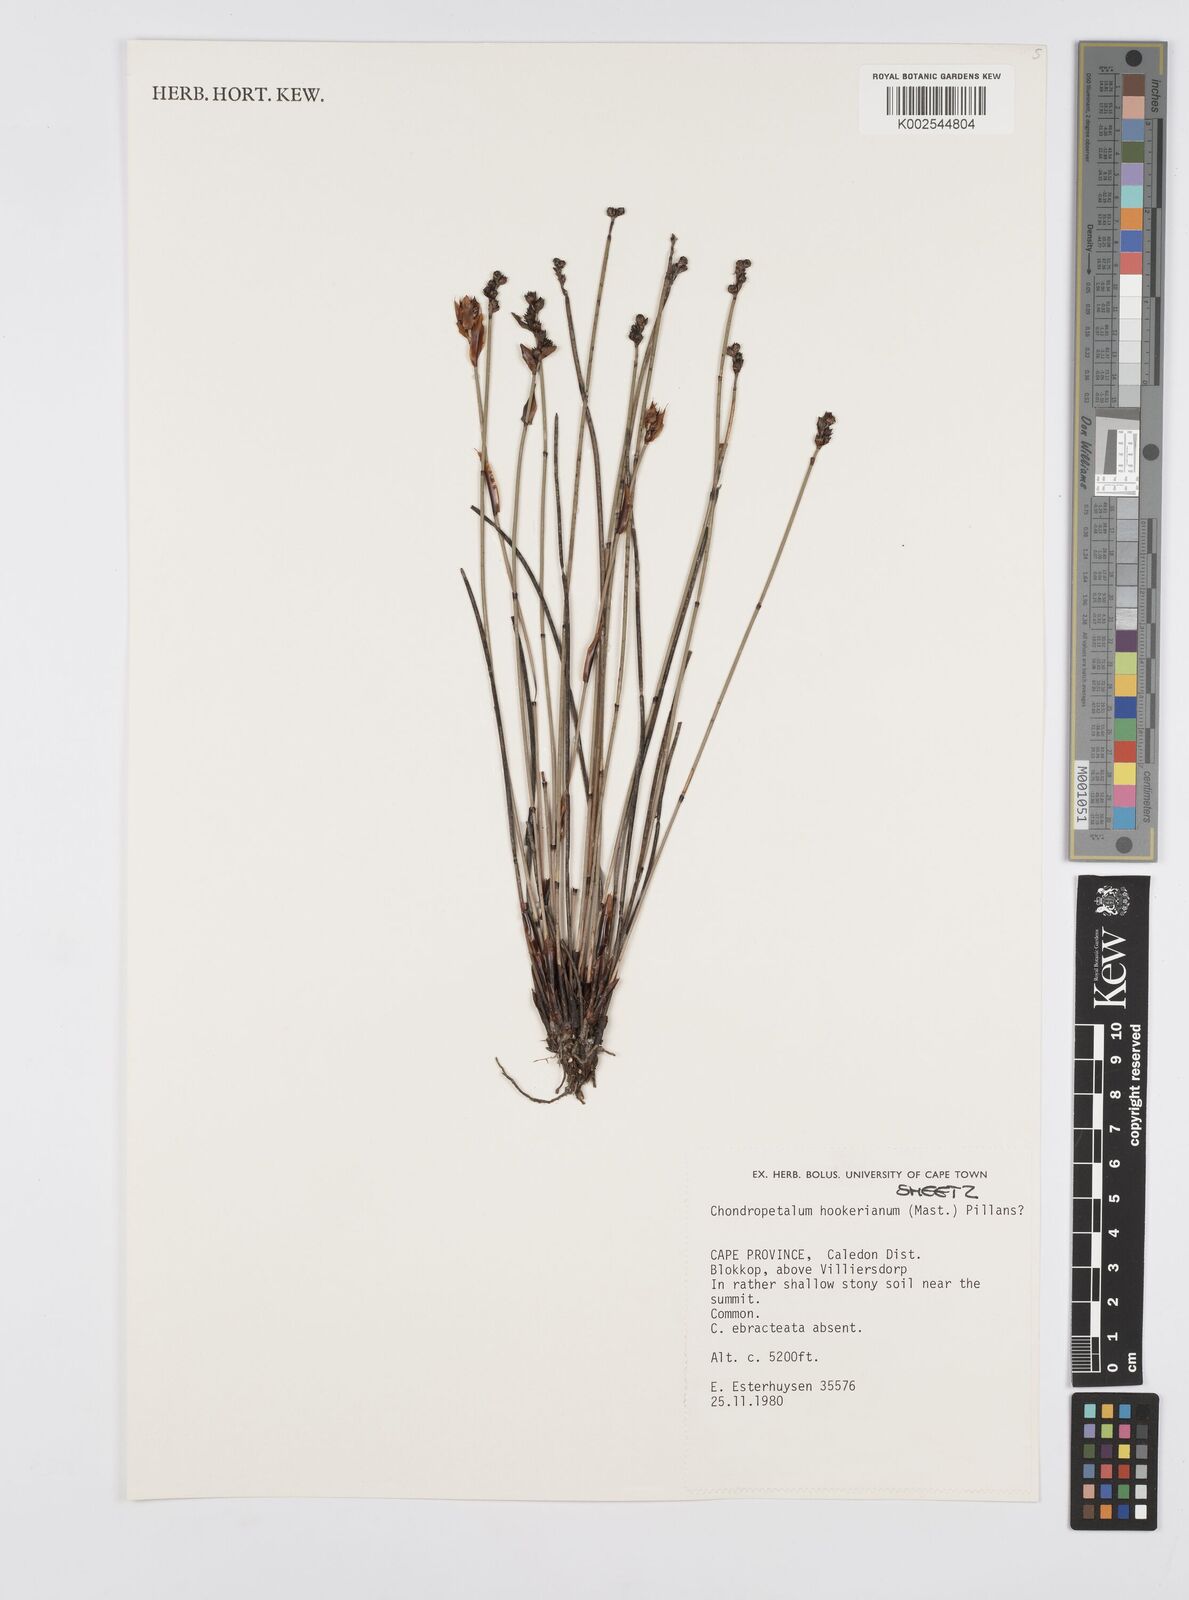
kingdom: Plantae
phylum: Tracheophyta
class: Liliopsida
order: Poales
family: Restionaceae
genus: Elegia
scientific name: Elegia hookeriana
